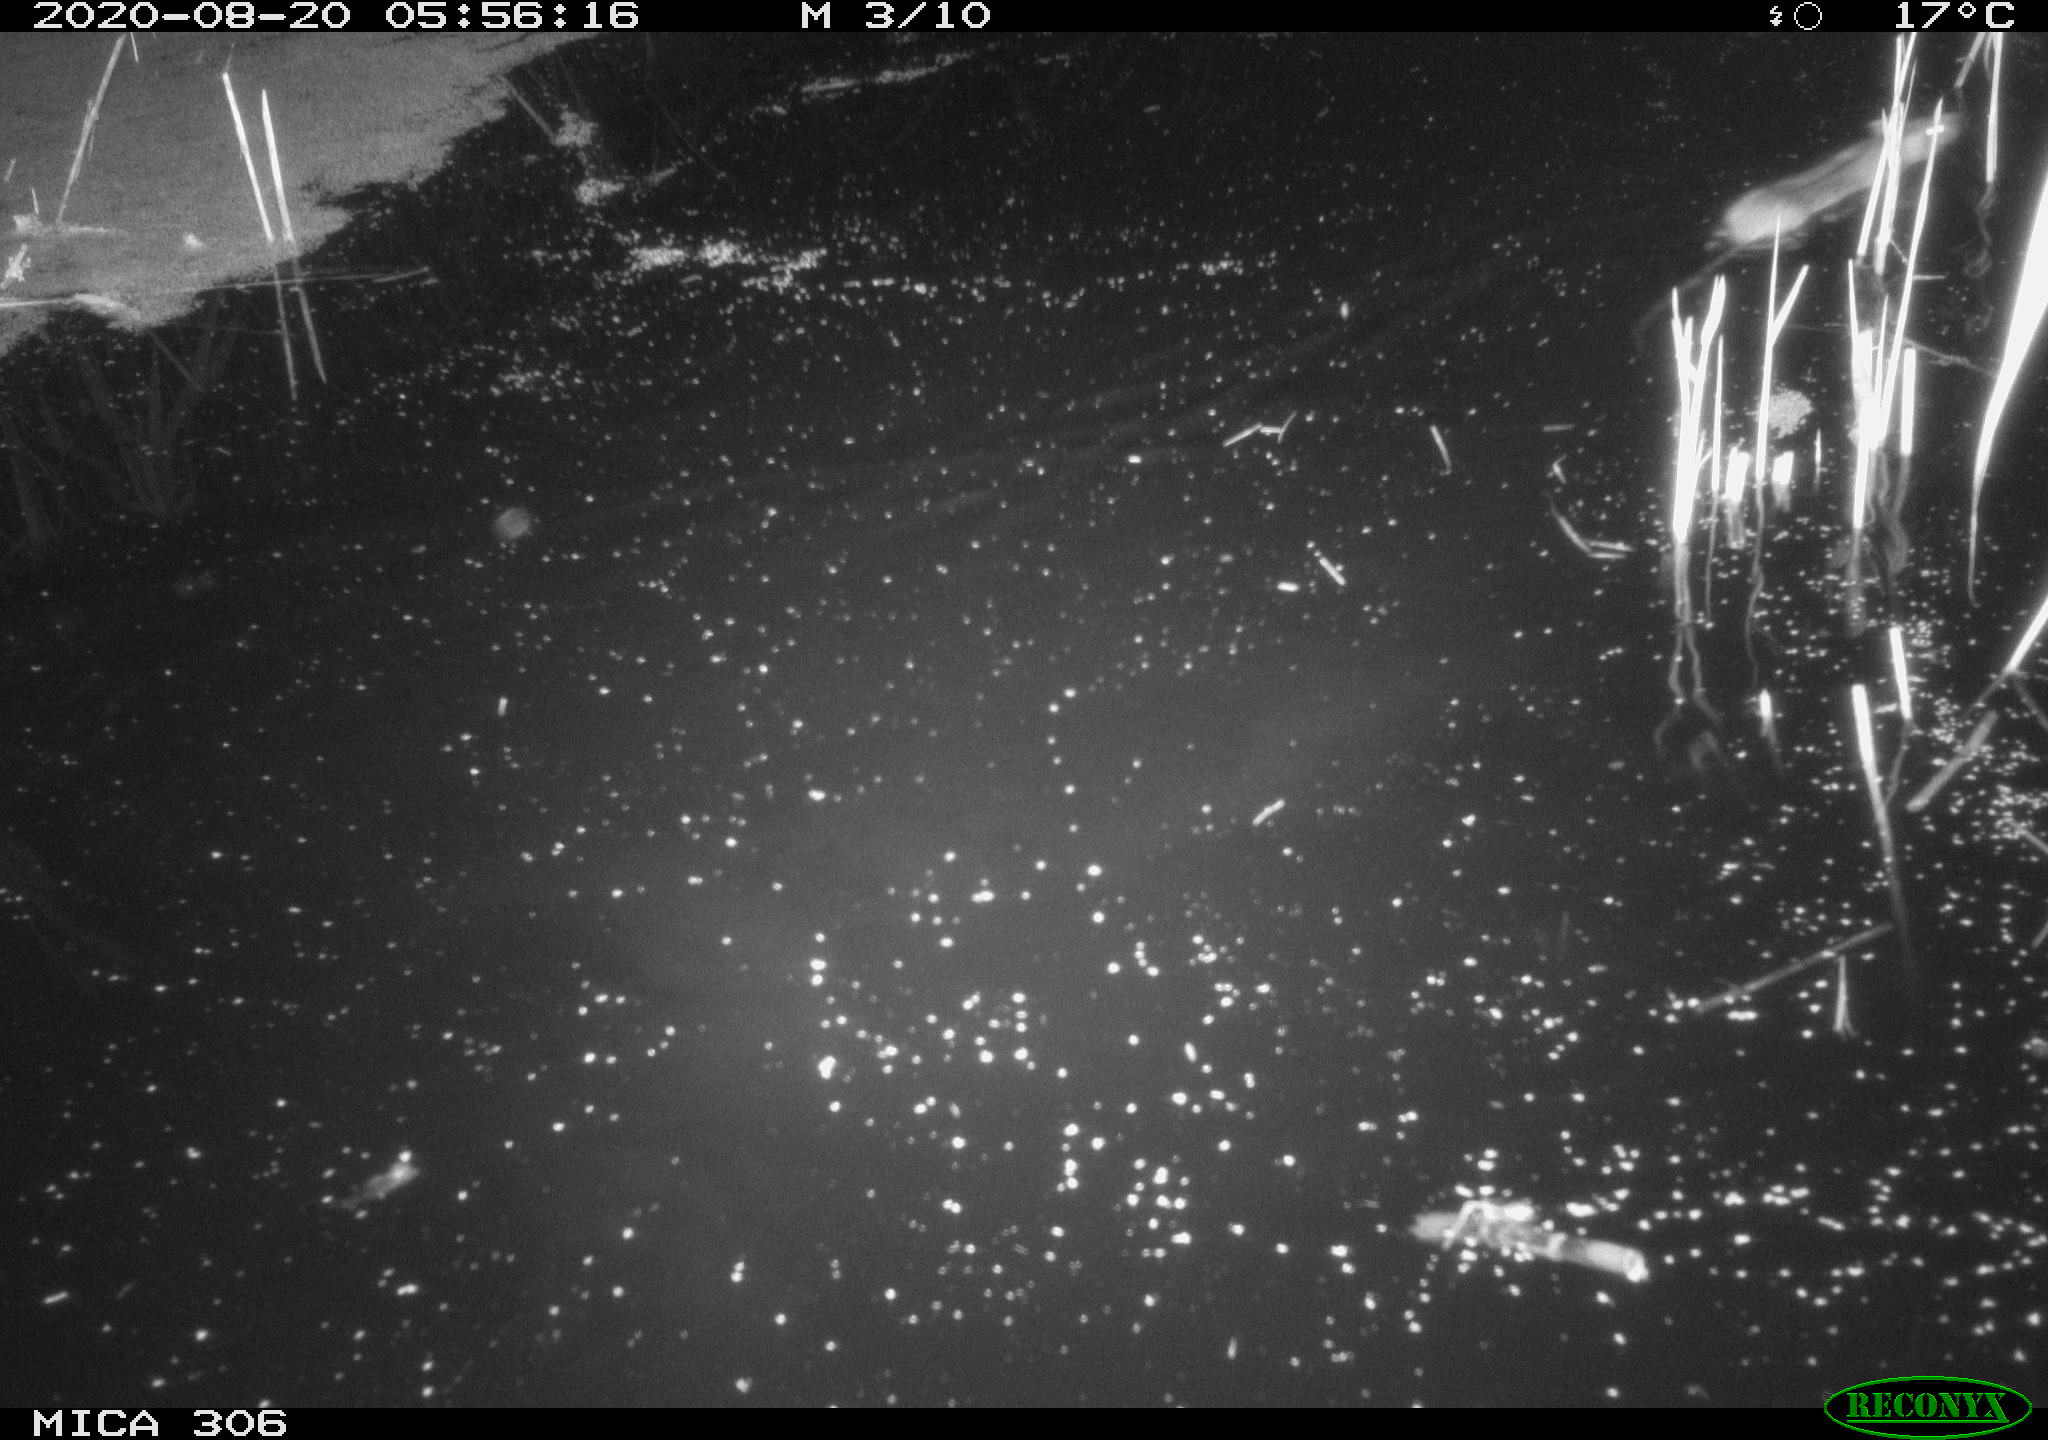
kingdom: Animalia
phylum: Chordata
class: Mammalia
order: Rodentia
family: Muridae
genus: Rattus
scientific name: Rattus norvegicus
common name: Brown rat
